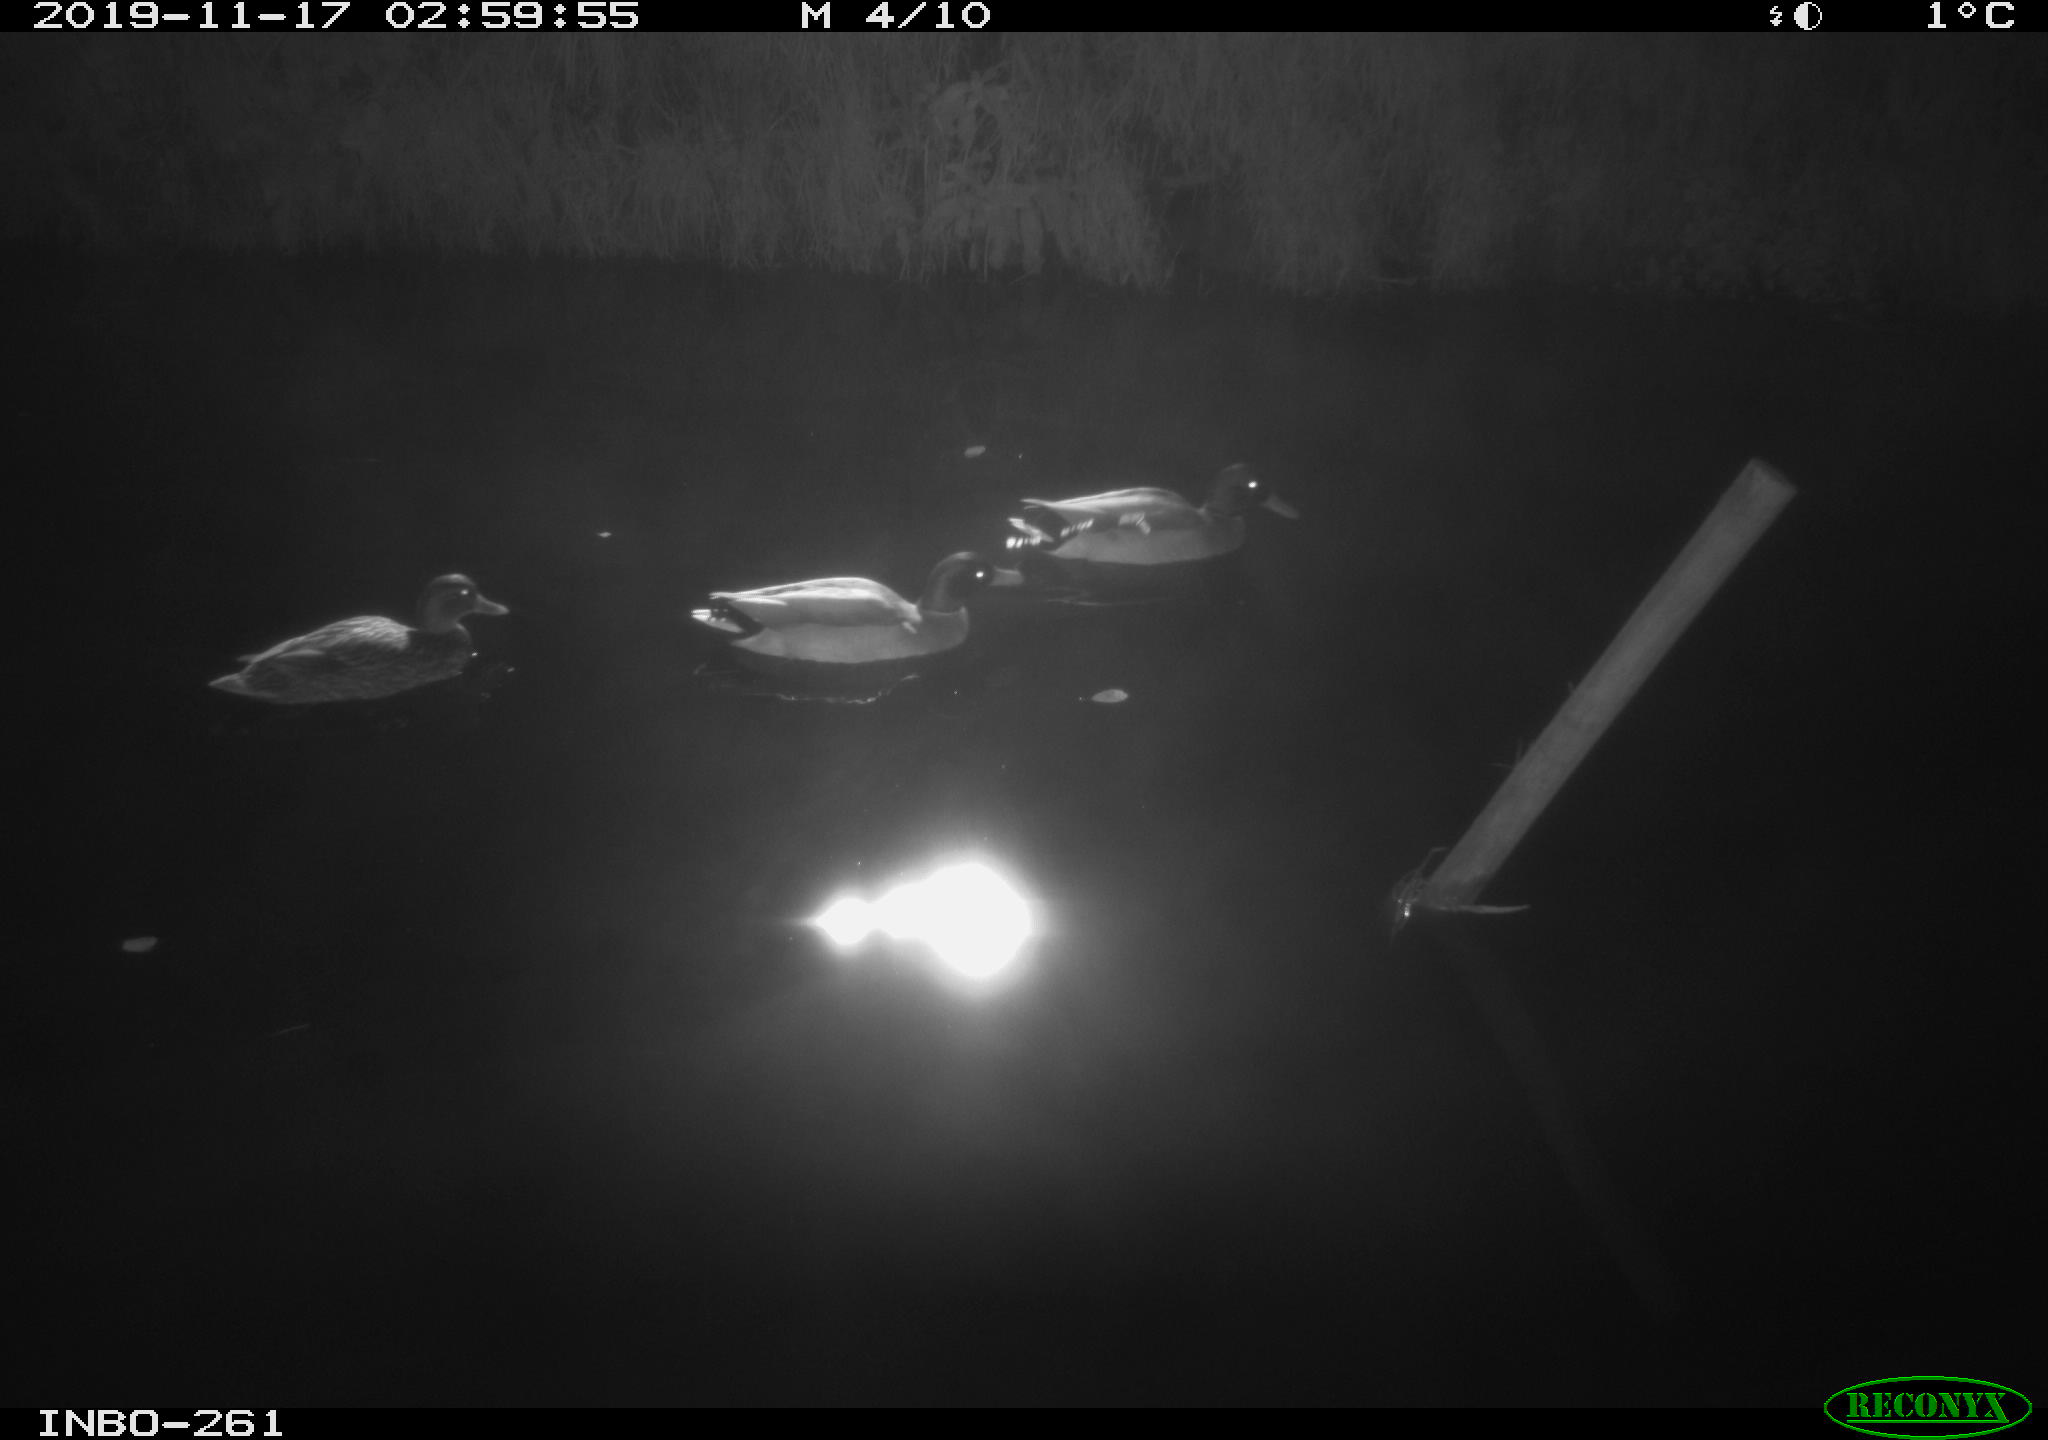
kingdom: Animalia
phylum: Chordata
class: Aves
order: Anseriformes
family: Anatidae
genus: Anas
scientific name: Anas platyrhynchos
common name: Mallard
